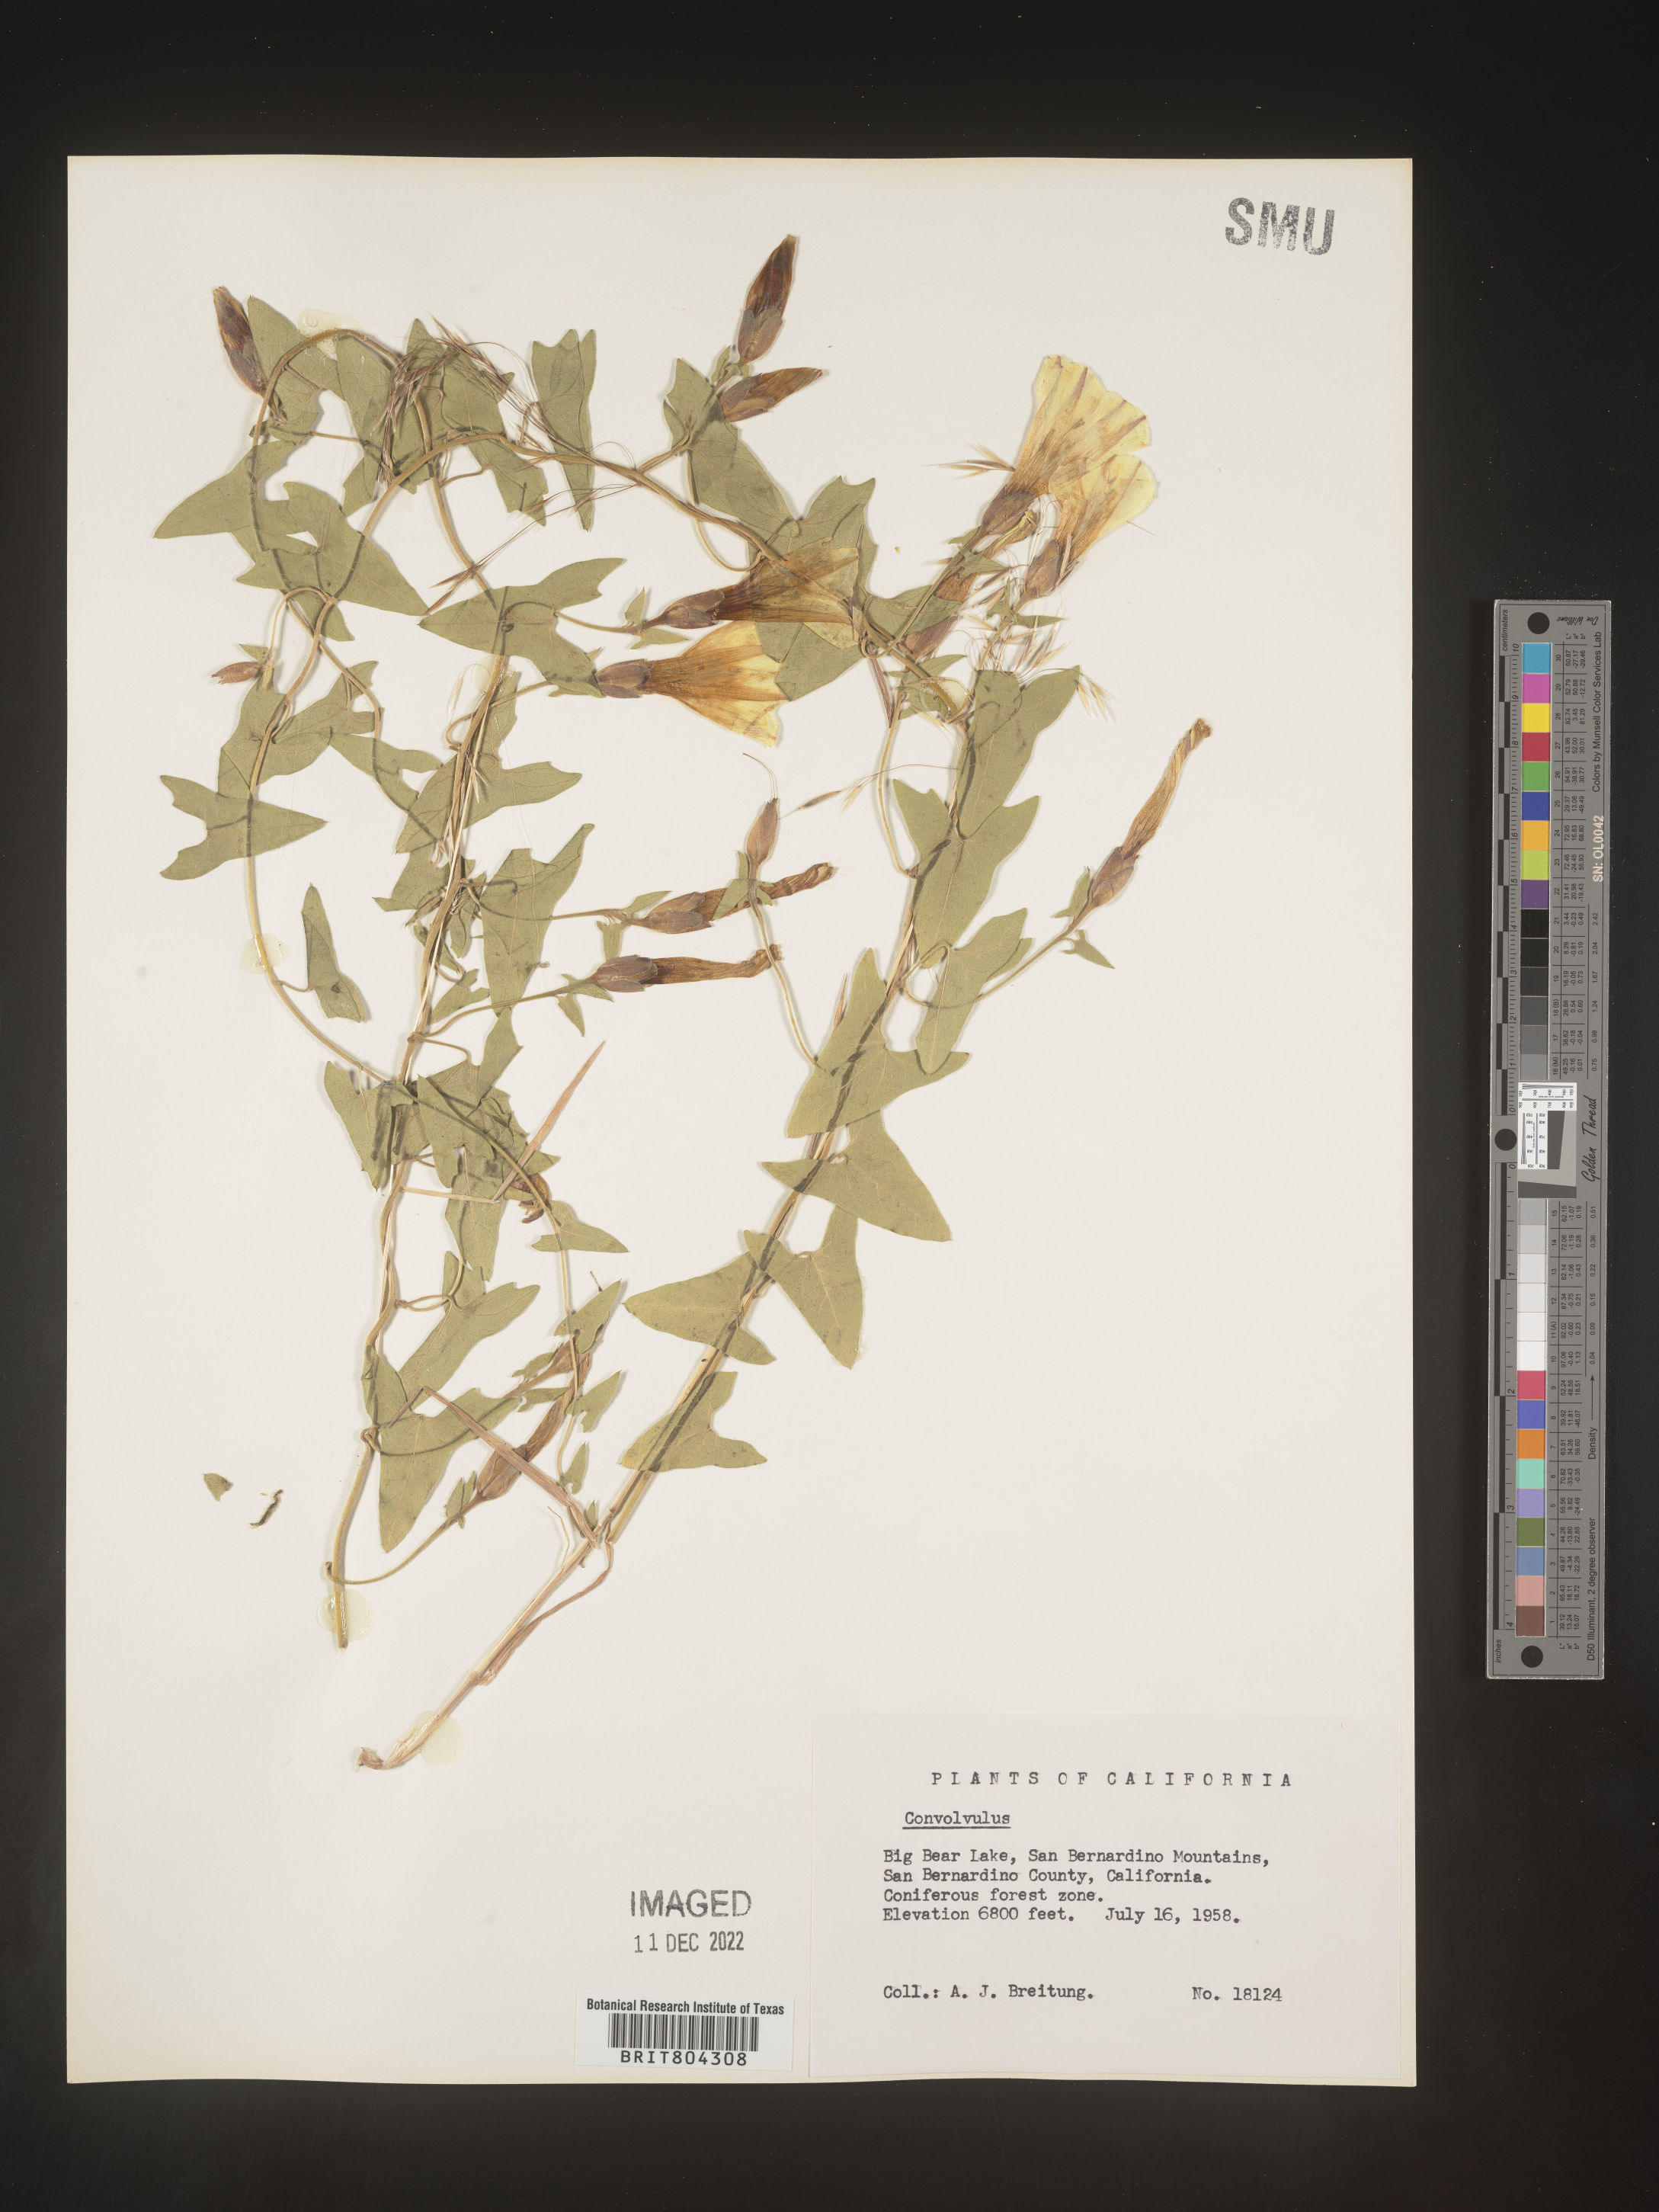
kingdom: Plantae
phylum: Tracheophyta
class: Magnoliopsida
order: Solanales
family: Convolvulaceae
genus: Calystegia
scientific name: Calystegia
